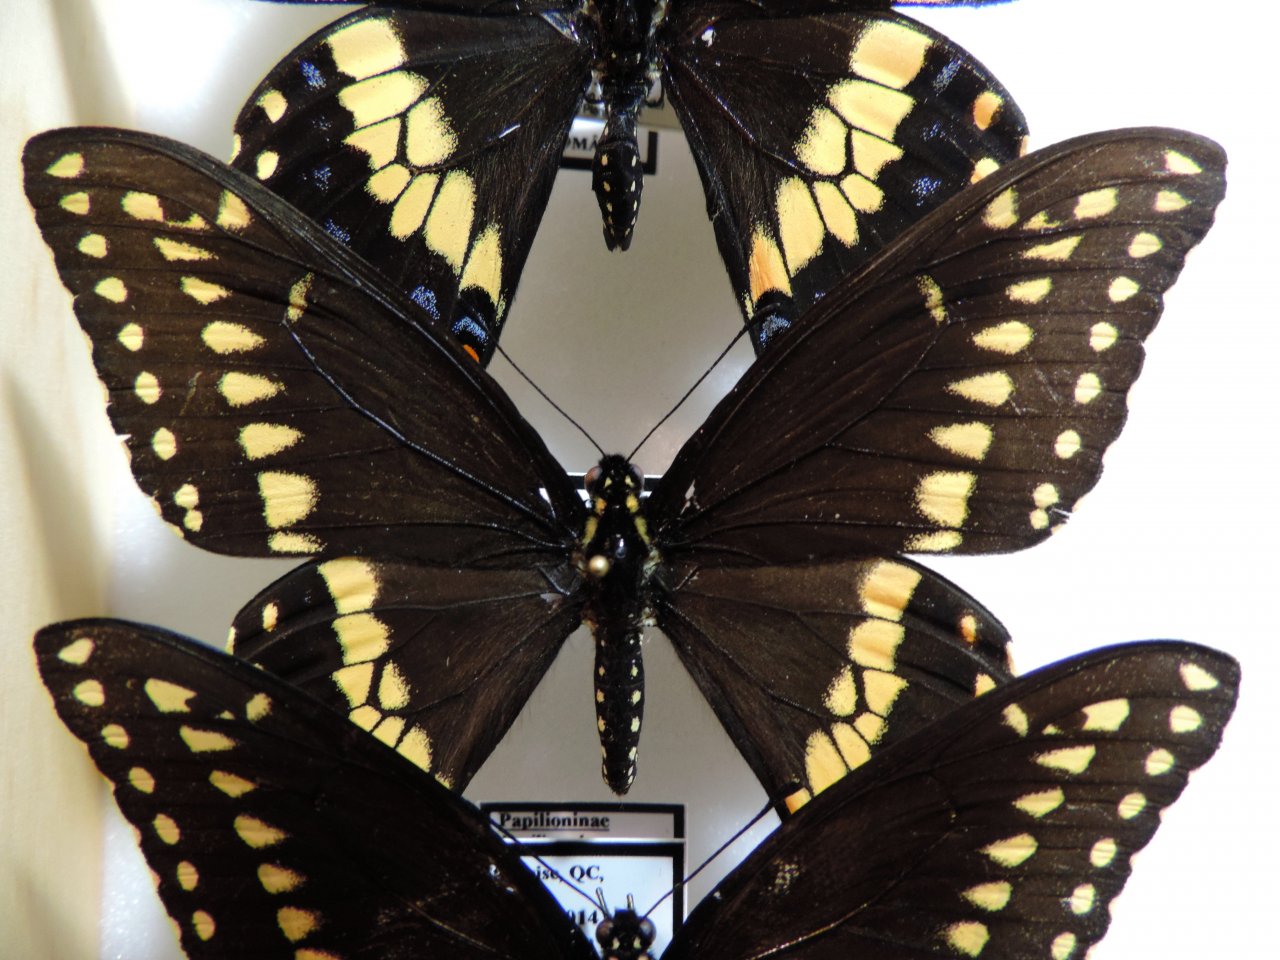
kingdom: Animalia
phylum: Arthropoda
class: Insecta
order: Lepidoptera
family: Papilionidae
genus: Papilio
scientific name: Papilio polyxenes
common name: Black Swallowtail
